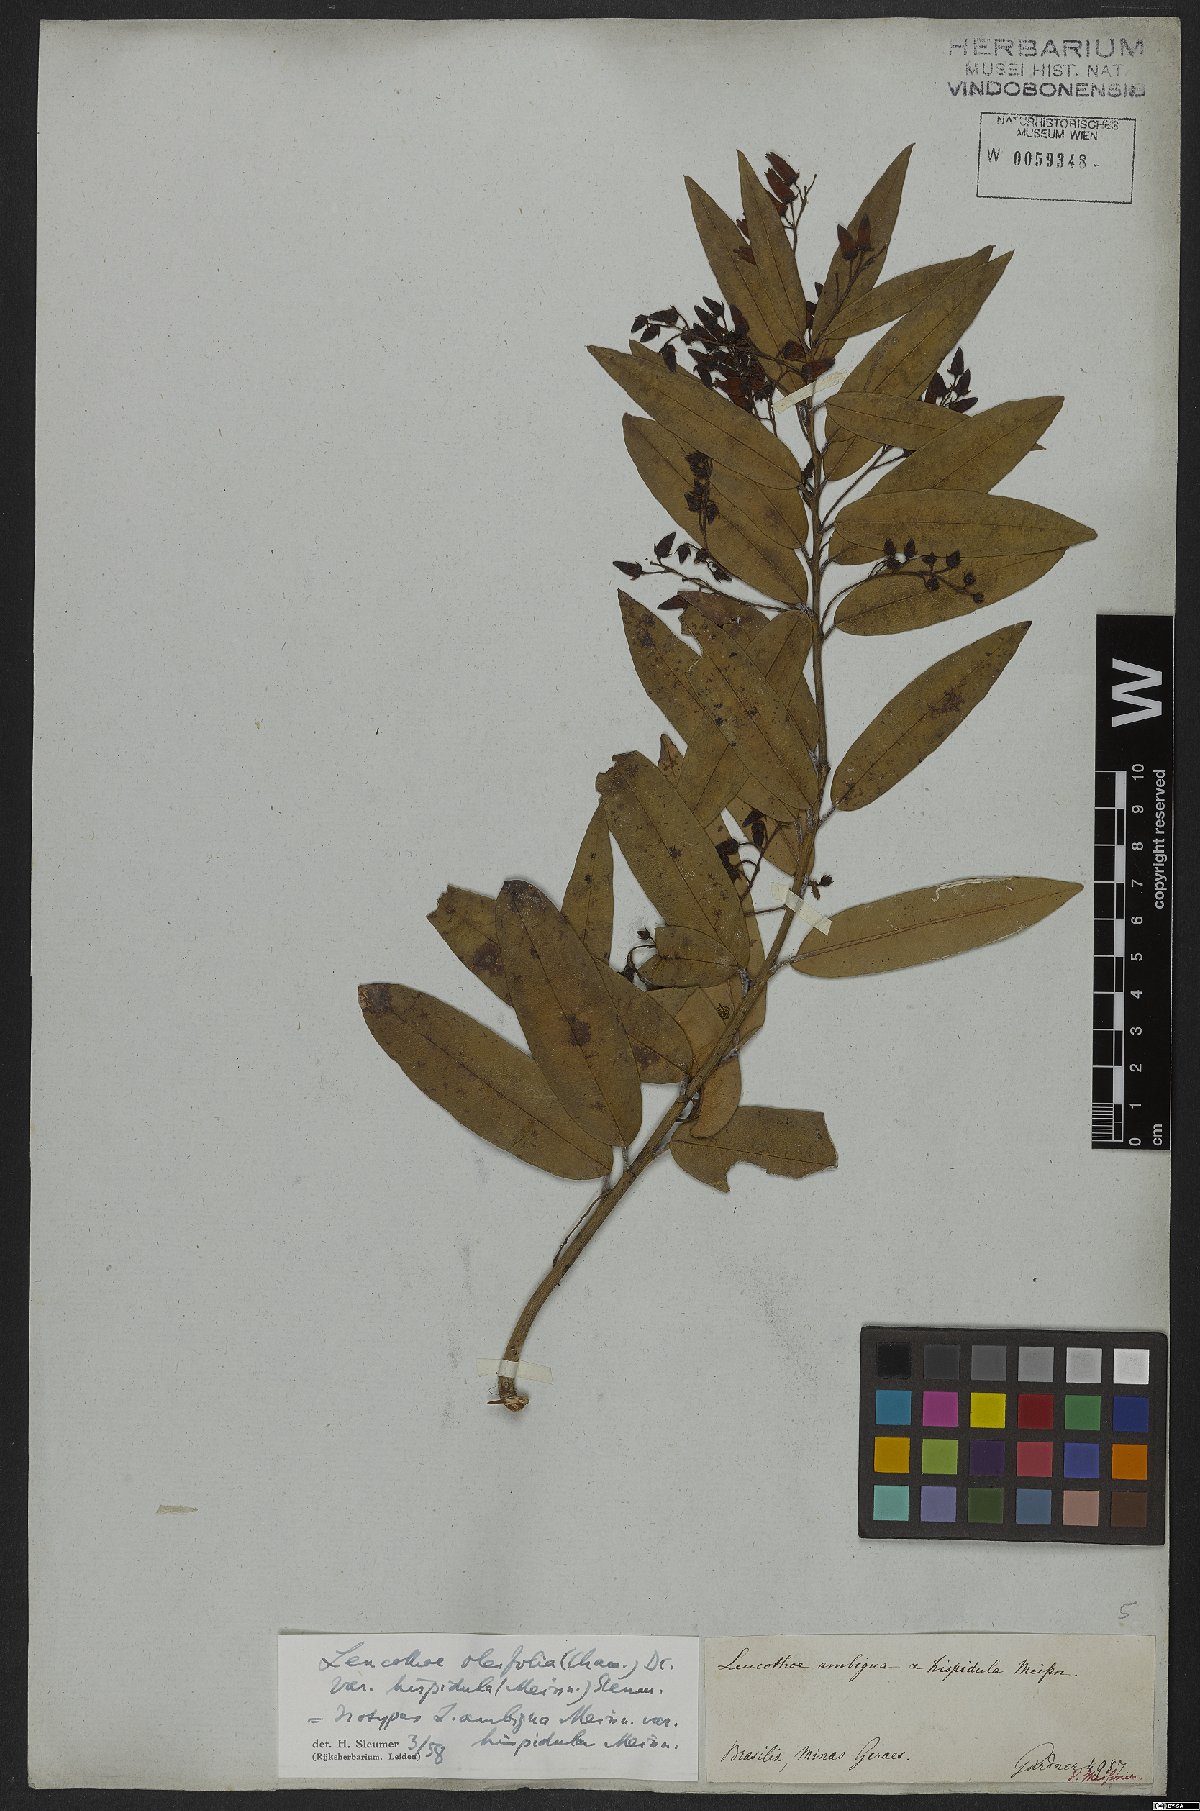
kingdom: Plantae
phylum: Tracheophyta
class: Magnoliopsida
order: Ericales
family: Ericaceae
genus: Agarista
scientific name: Agarista oleifolia
